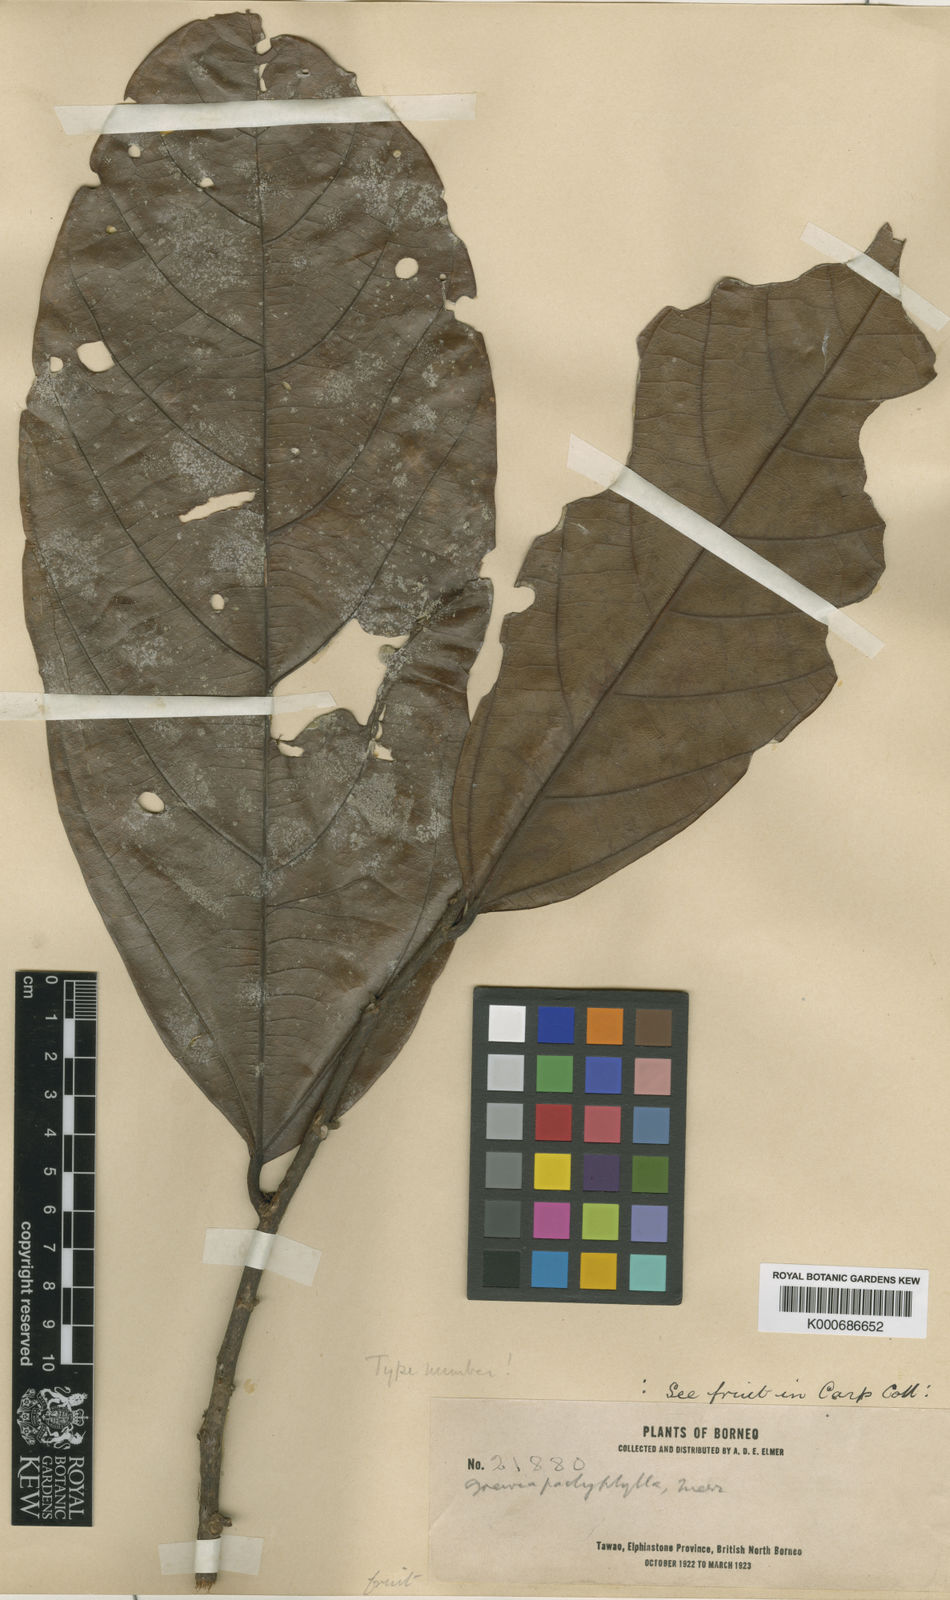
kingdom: Plantae
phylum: Tracheophyta
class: Magnoliopsida
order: Malvales
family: Malvaceae
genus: Microcos
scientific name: Microcos pachyphylla
